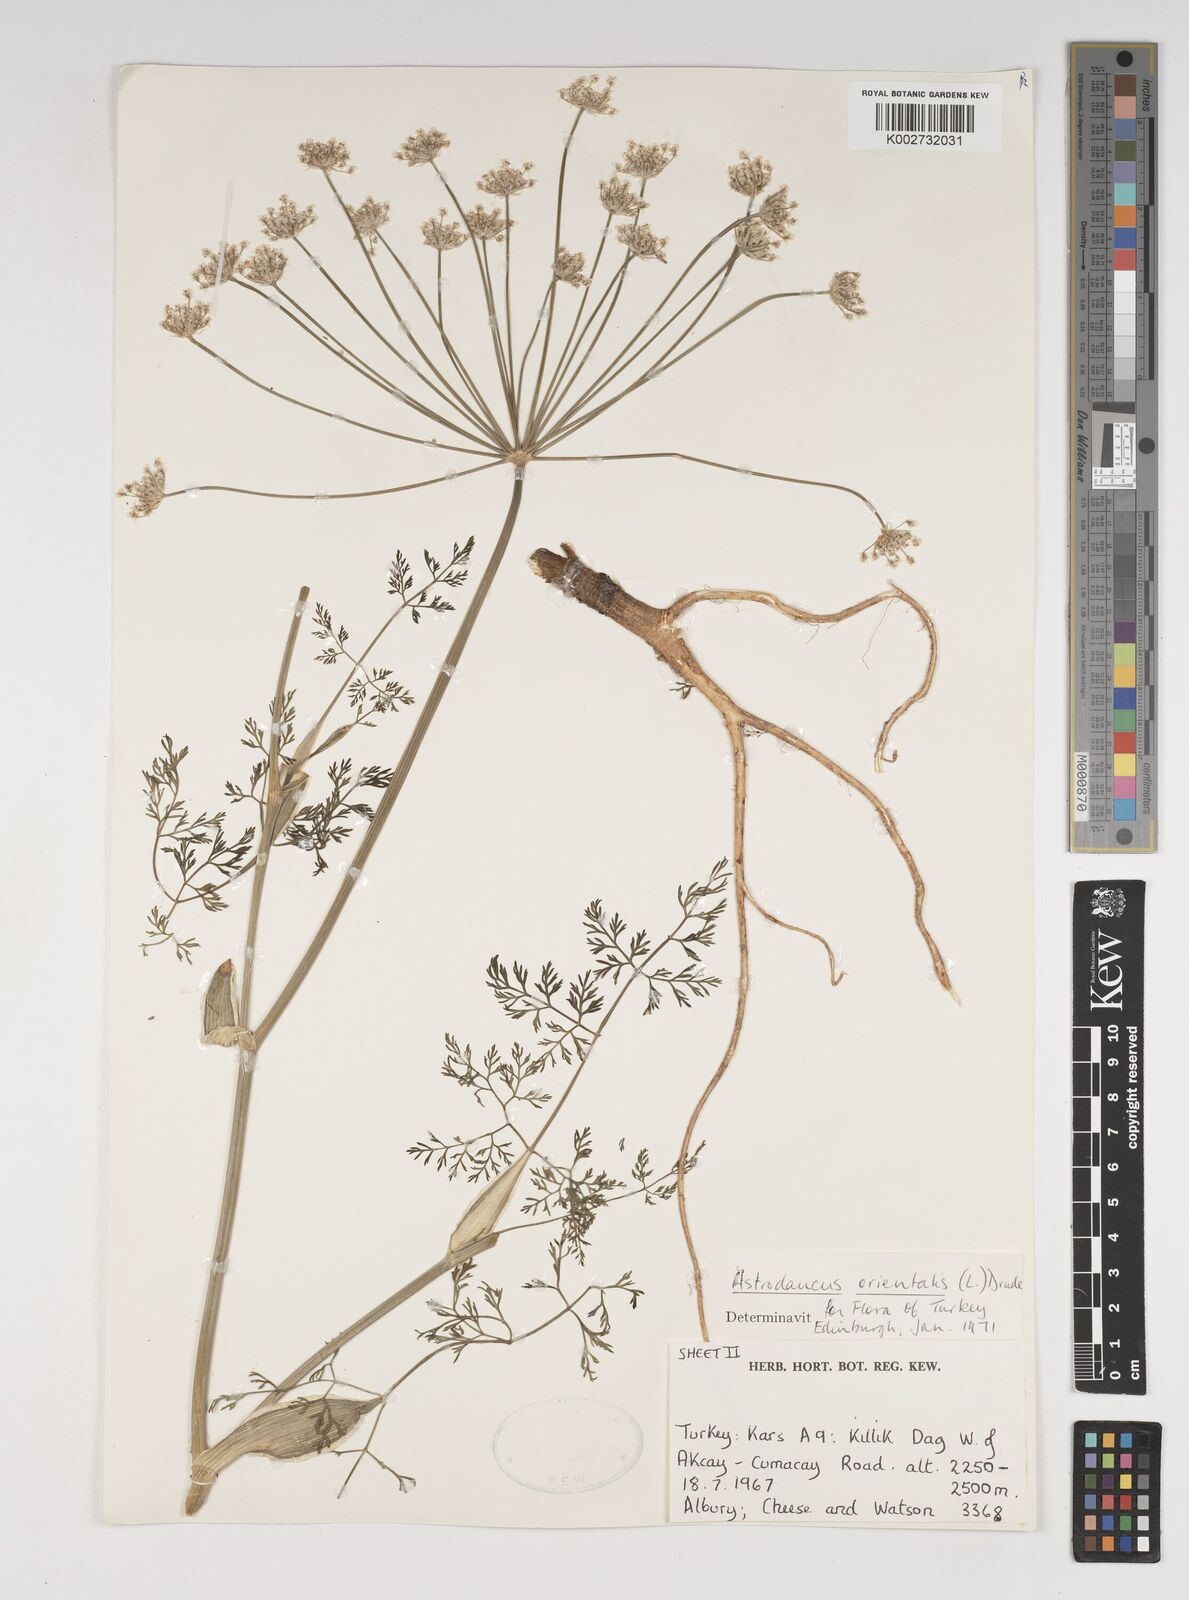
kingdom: Plantae
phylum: Tracheophyta
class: Magnoliopsida
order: Apiales
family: Apiaceae
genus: Astrodaucus
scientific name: Astrodaucus
